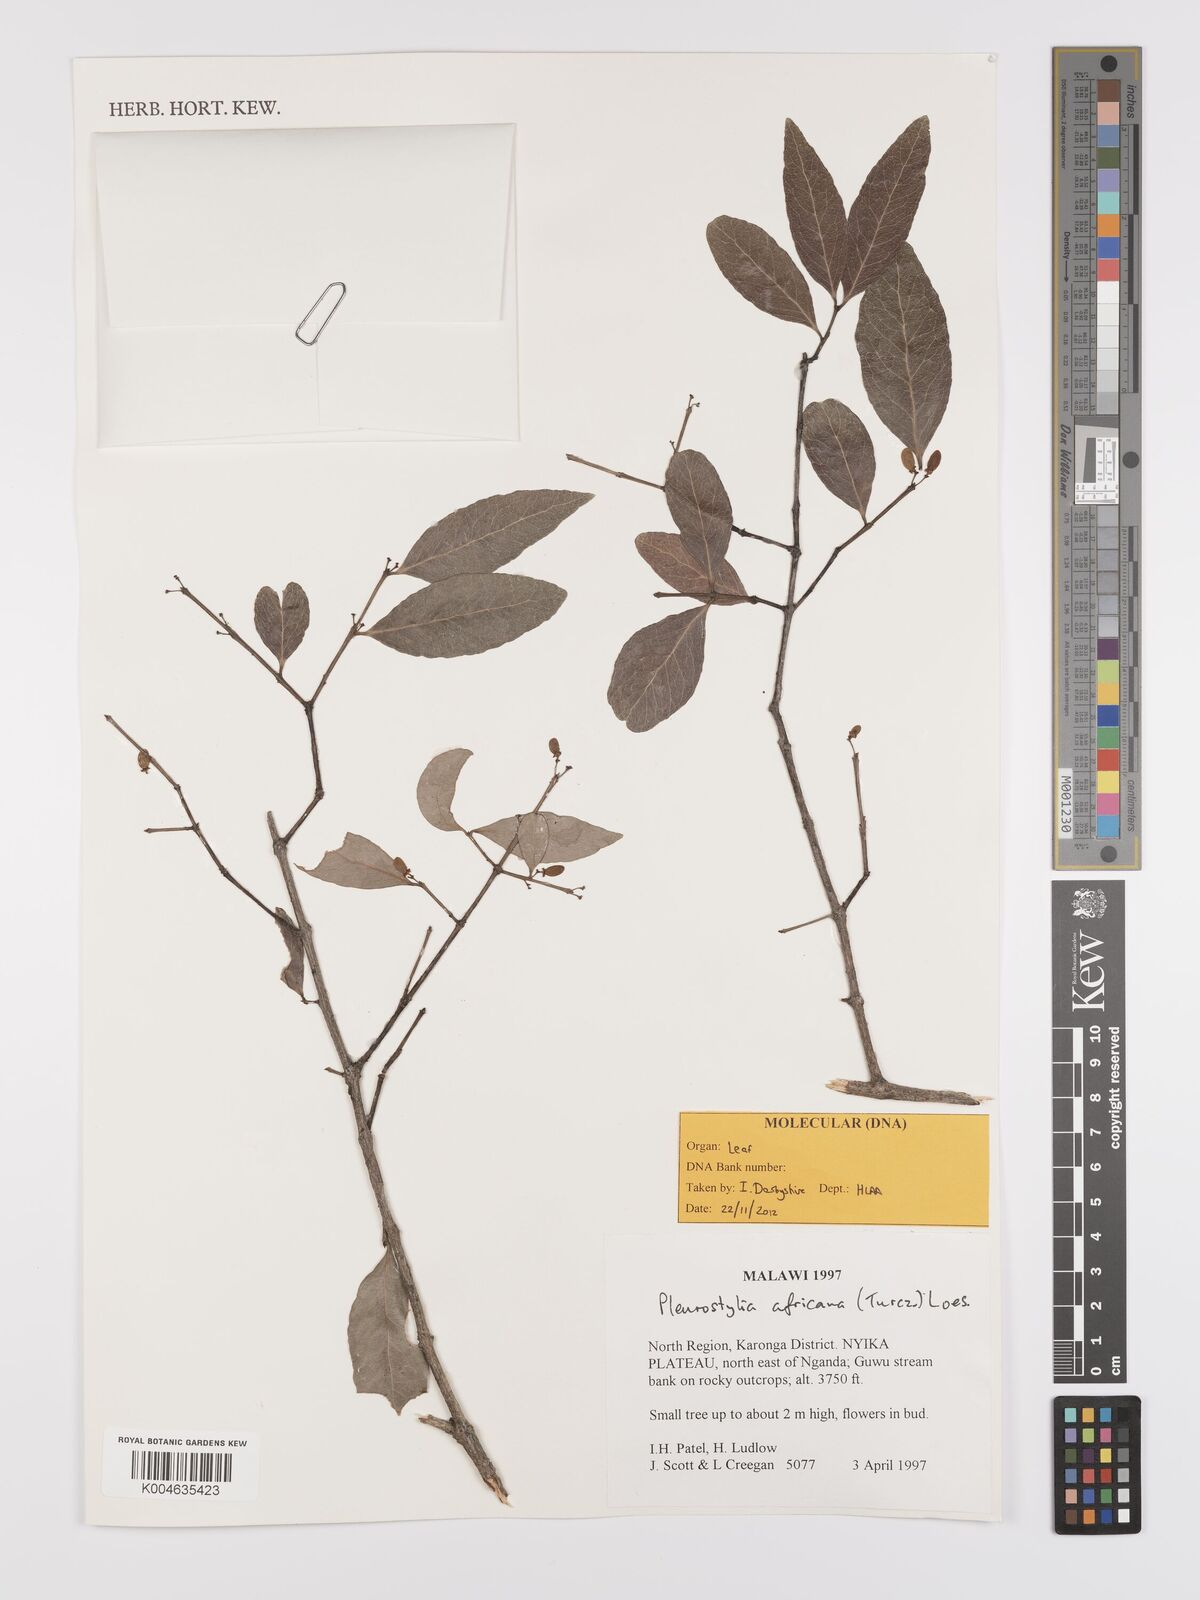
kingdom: Plantae
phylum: Tracheophyta
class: Magnoliopsida
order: Celastrales
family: Celastraceae
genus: Pleurostylia
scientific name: Pleurostylia africana
